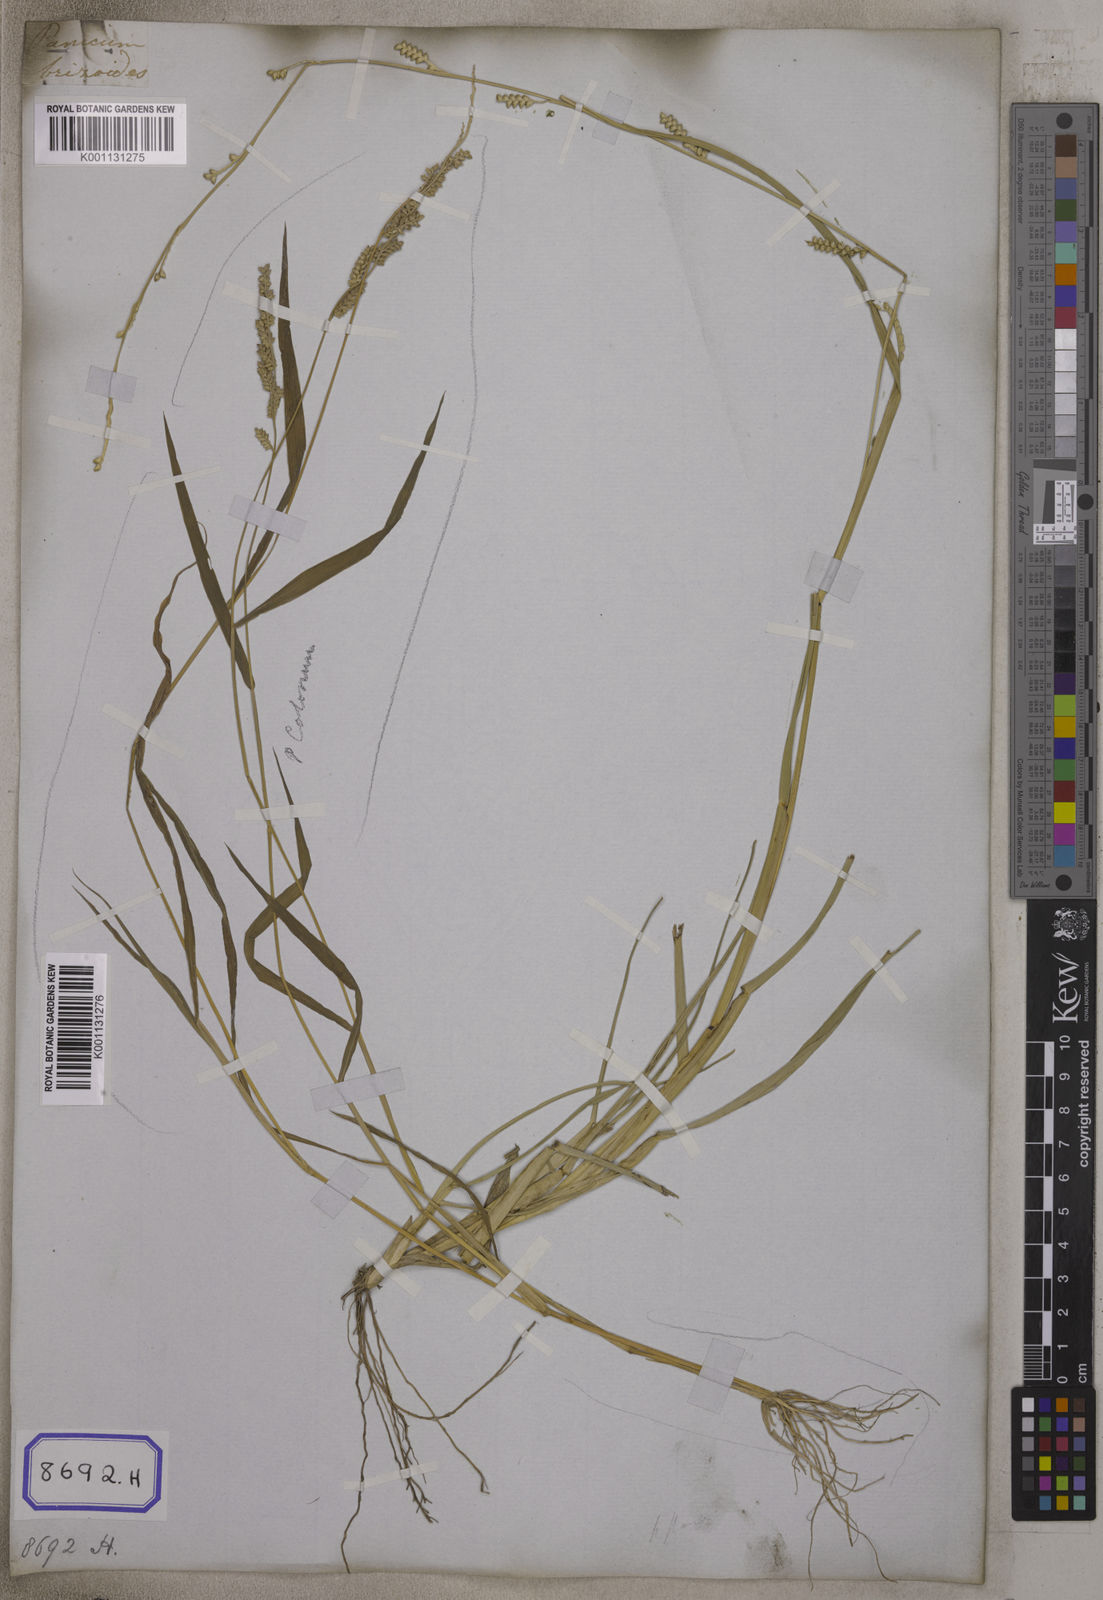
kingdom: Plantae
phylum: Tracheophyta
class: Liliopsida
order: Poales
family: Poaceae
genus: Setaria
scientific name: Setaria flavida
